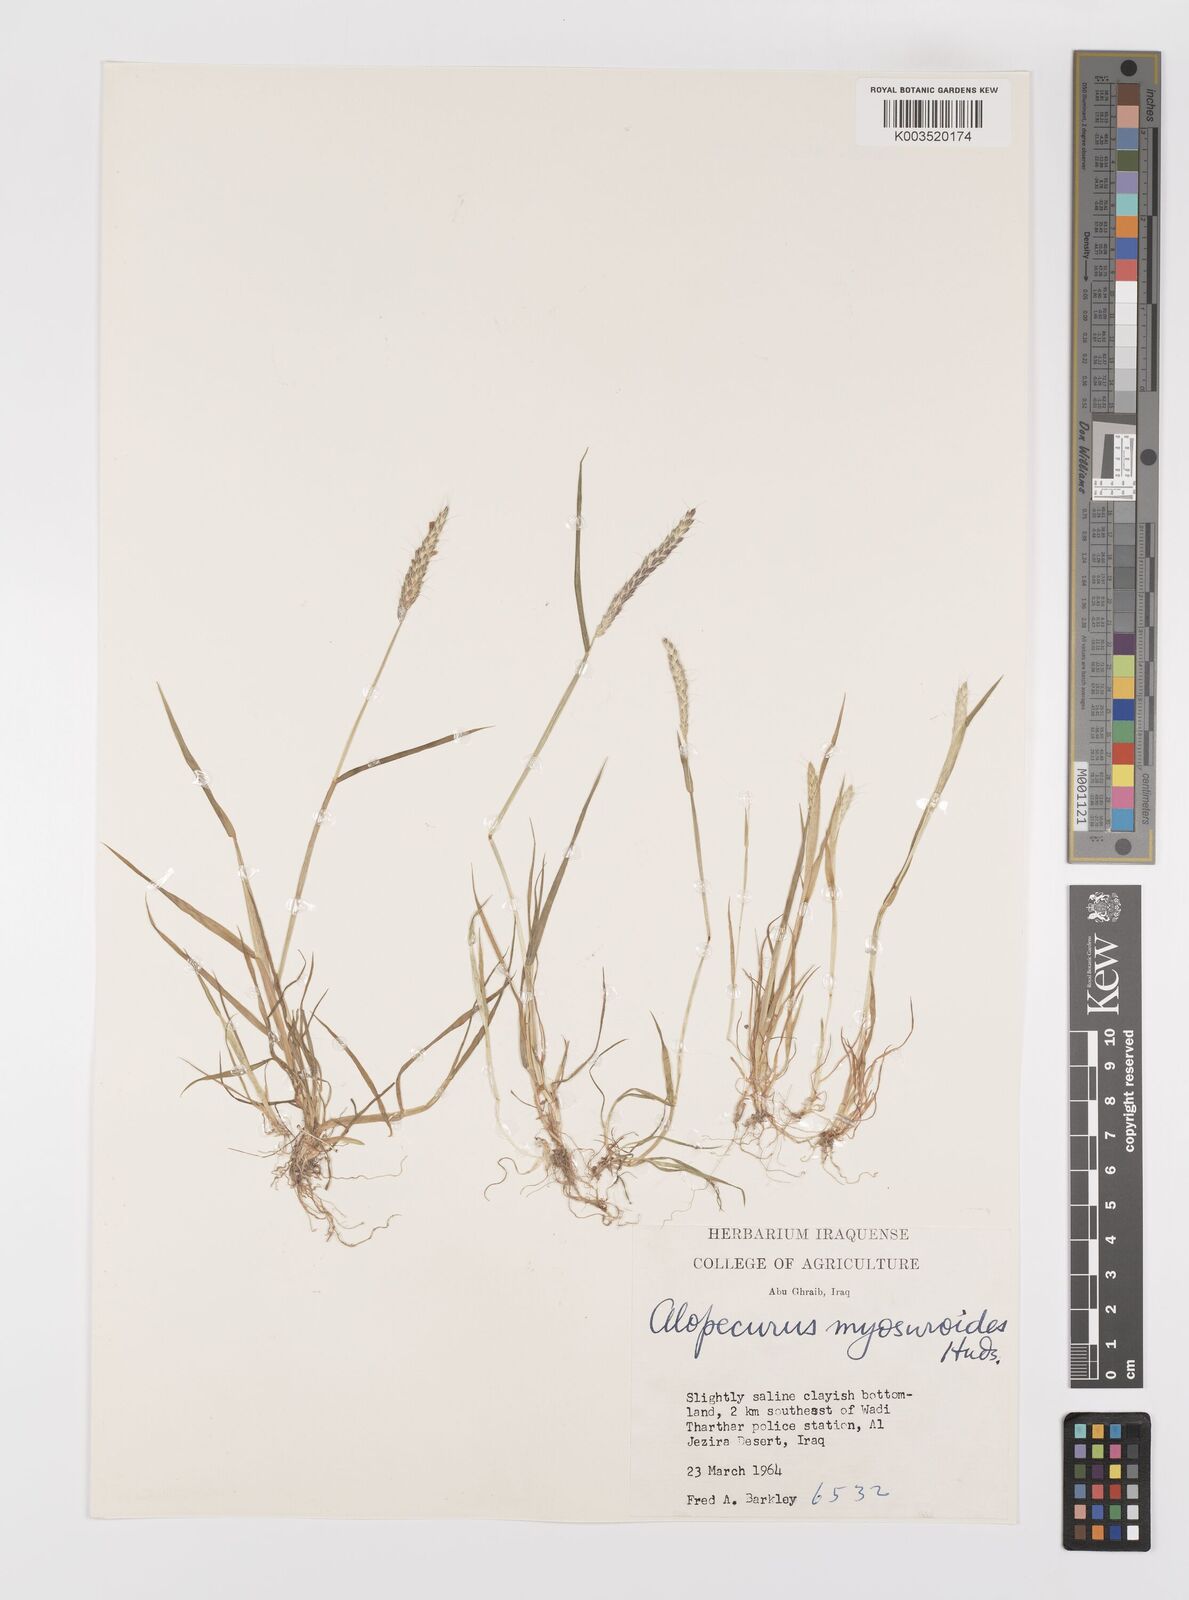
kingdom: Plantae
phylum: Tracheophyta
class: Liliopsida
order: Poales
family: Poaceae
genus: Alopecurus
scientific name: Alopecurus myosuroides
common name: Black-grass
